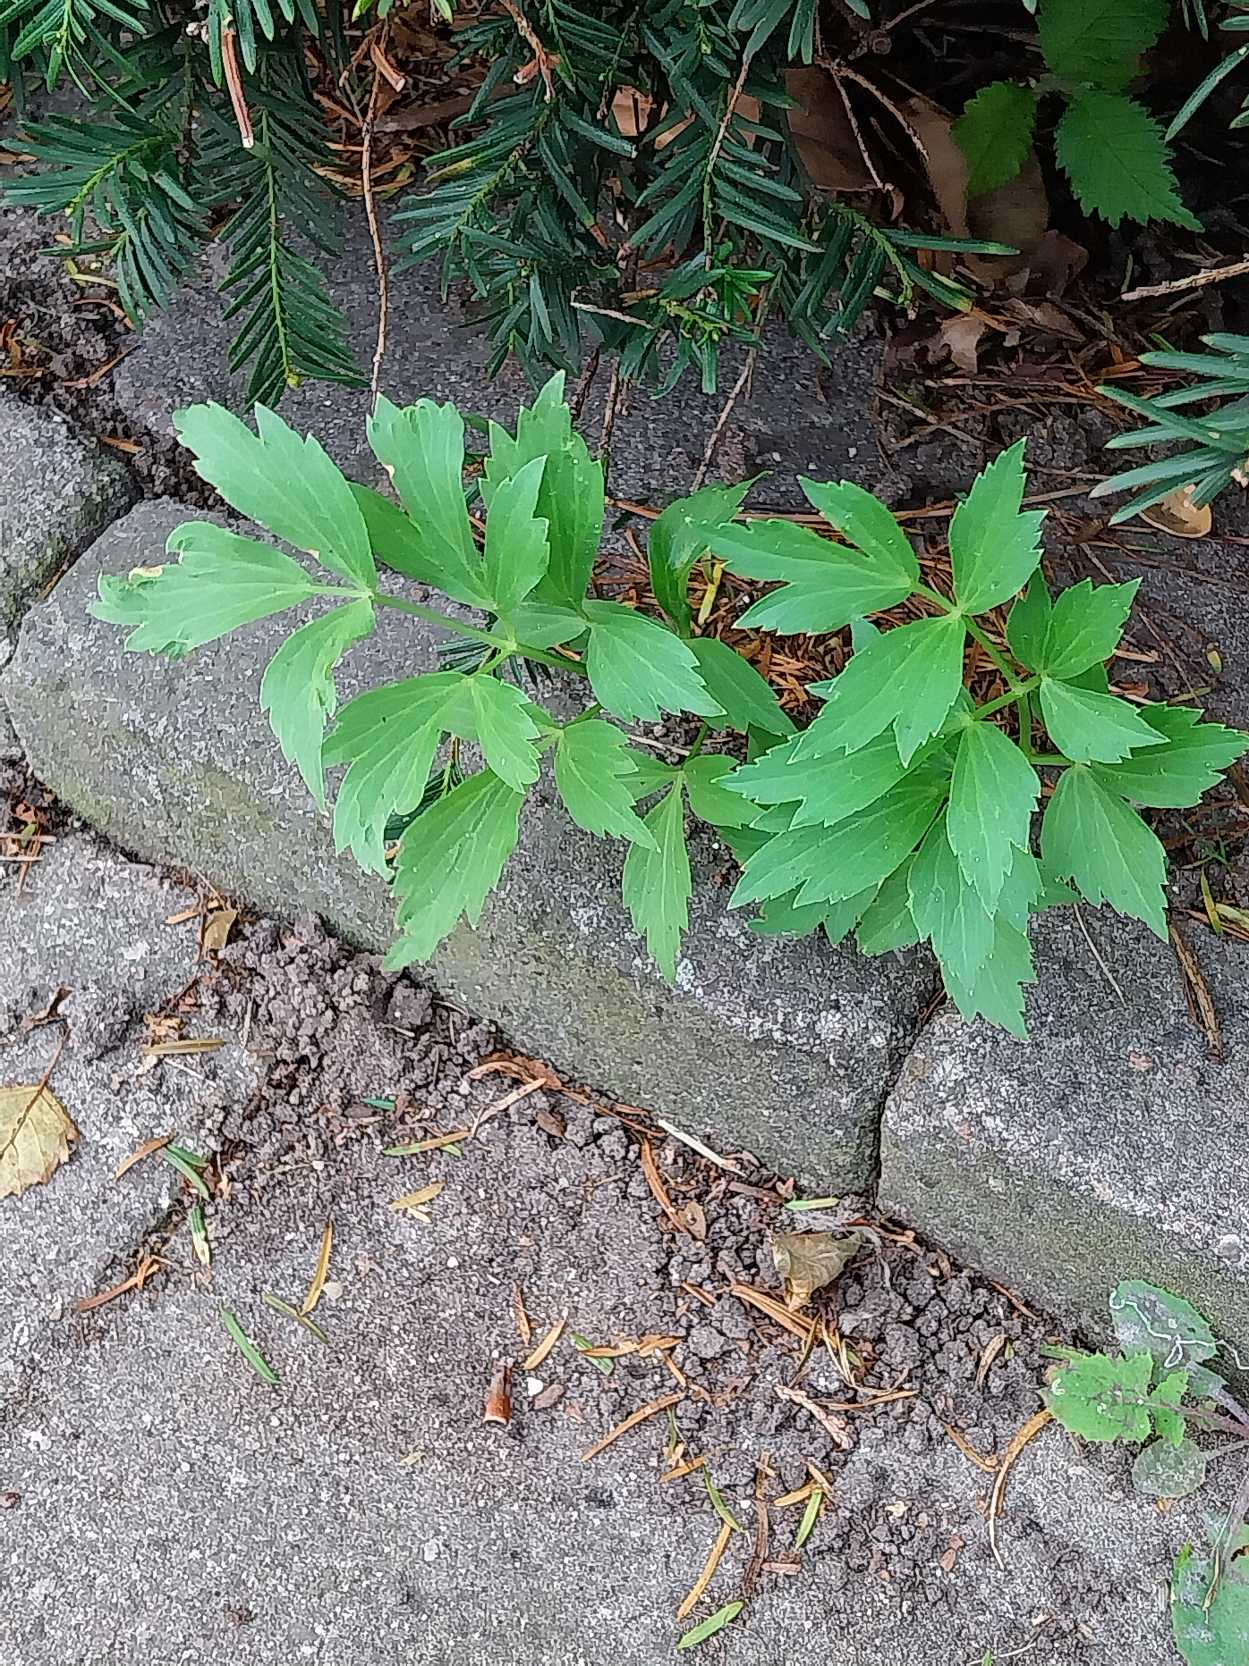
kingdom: Plantae
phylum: Tracheophyta
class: Magnoliopsida
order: Apiales
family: Apiaceae
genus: Levisticum
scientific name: Levisticum officinale
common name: Løvstikke
